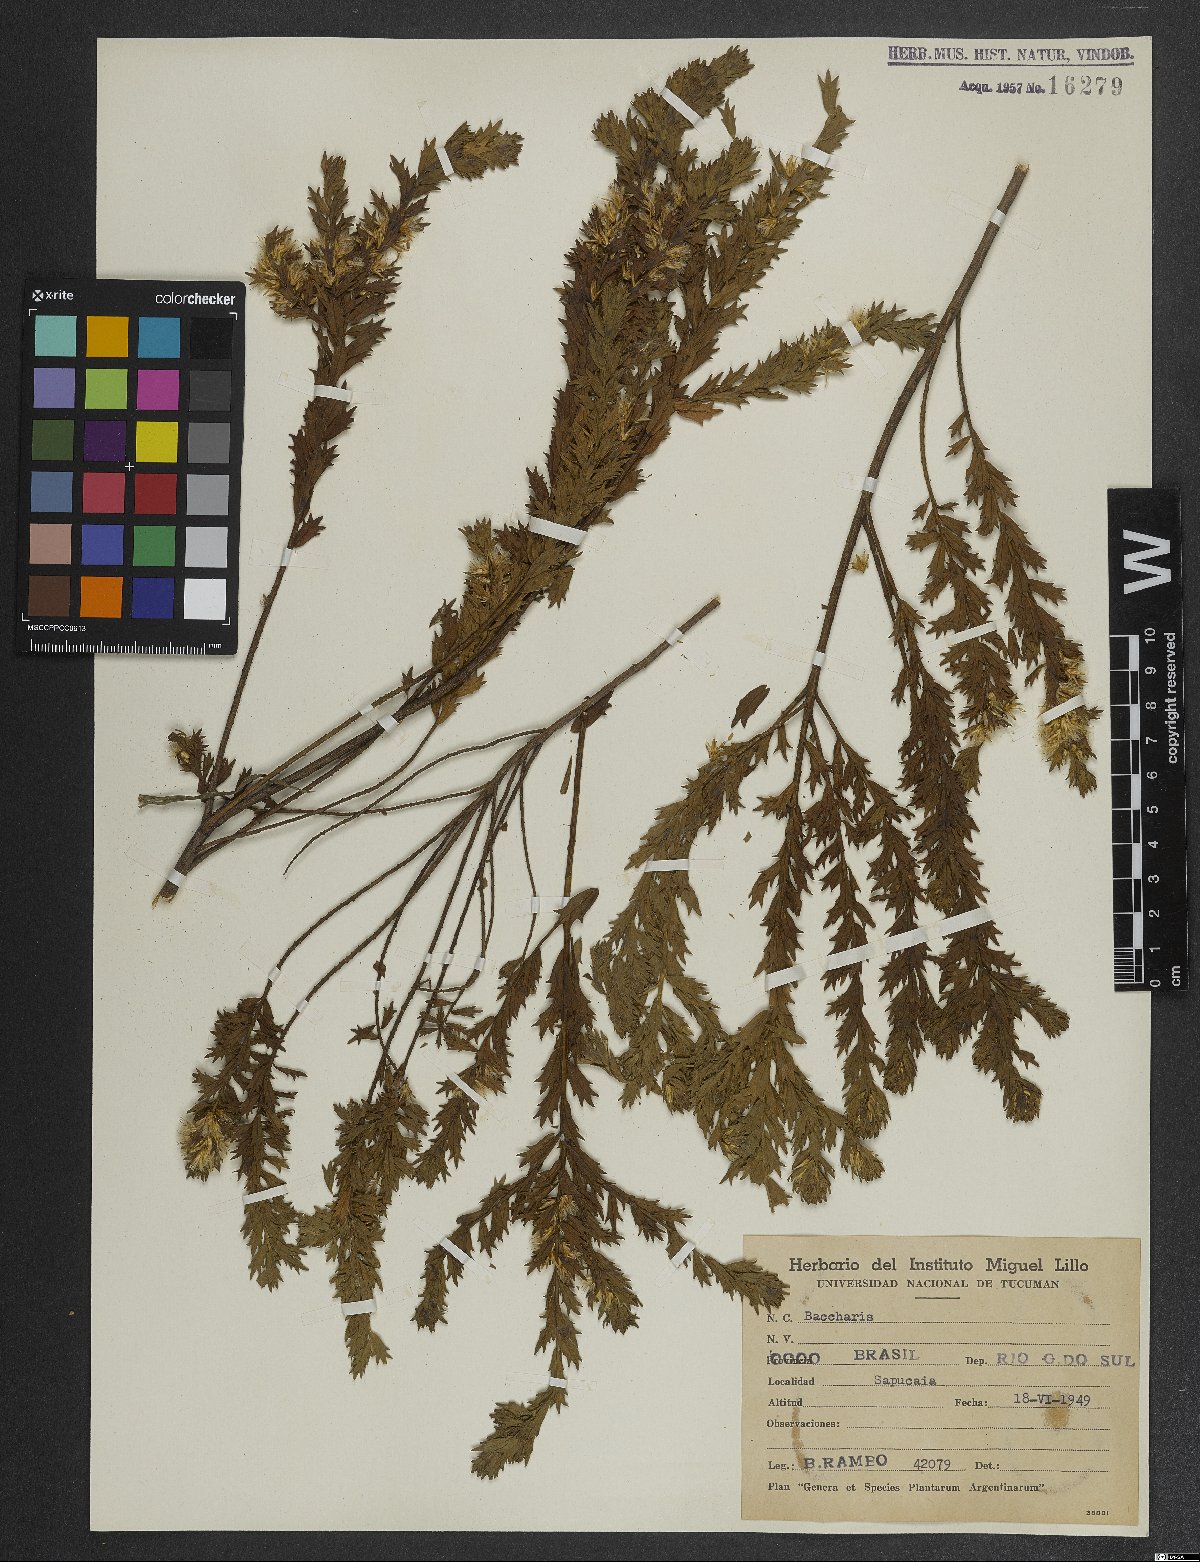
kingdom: Plantae
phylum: Tracheophyta
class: Magnoliopsida
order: Asterales
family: Asteraceae
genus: Baccharis
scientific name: Baccharis
